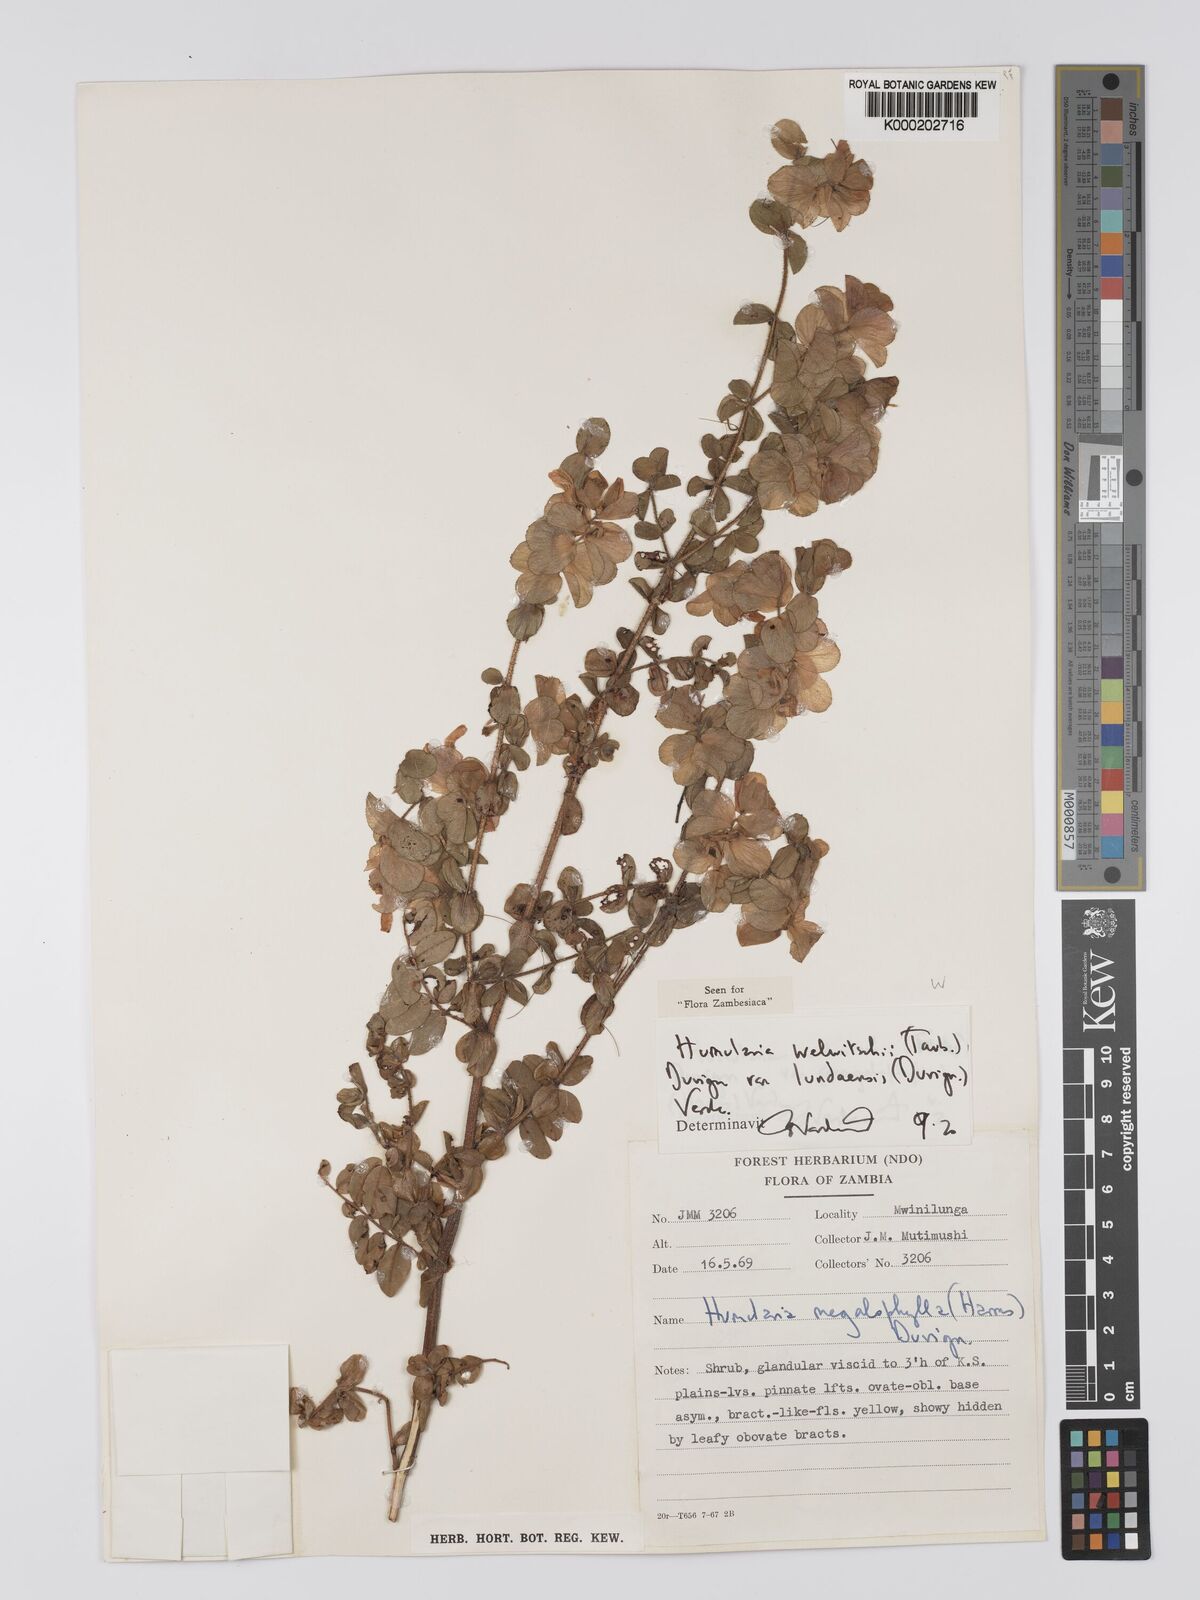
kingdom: Plantae
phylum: Tracheophyta
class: Magnoliopsida
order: Fabales
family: Fabaceae
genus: Humularia
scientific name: Humularia welwitschii
